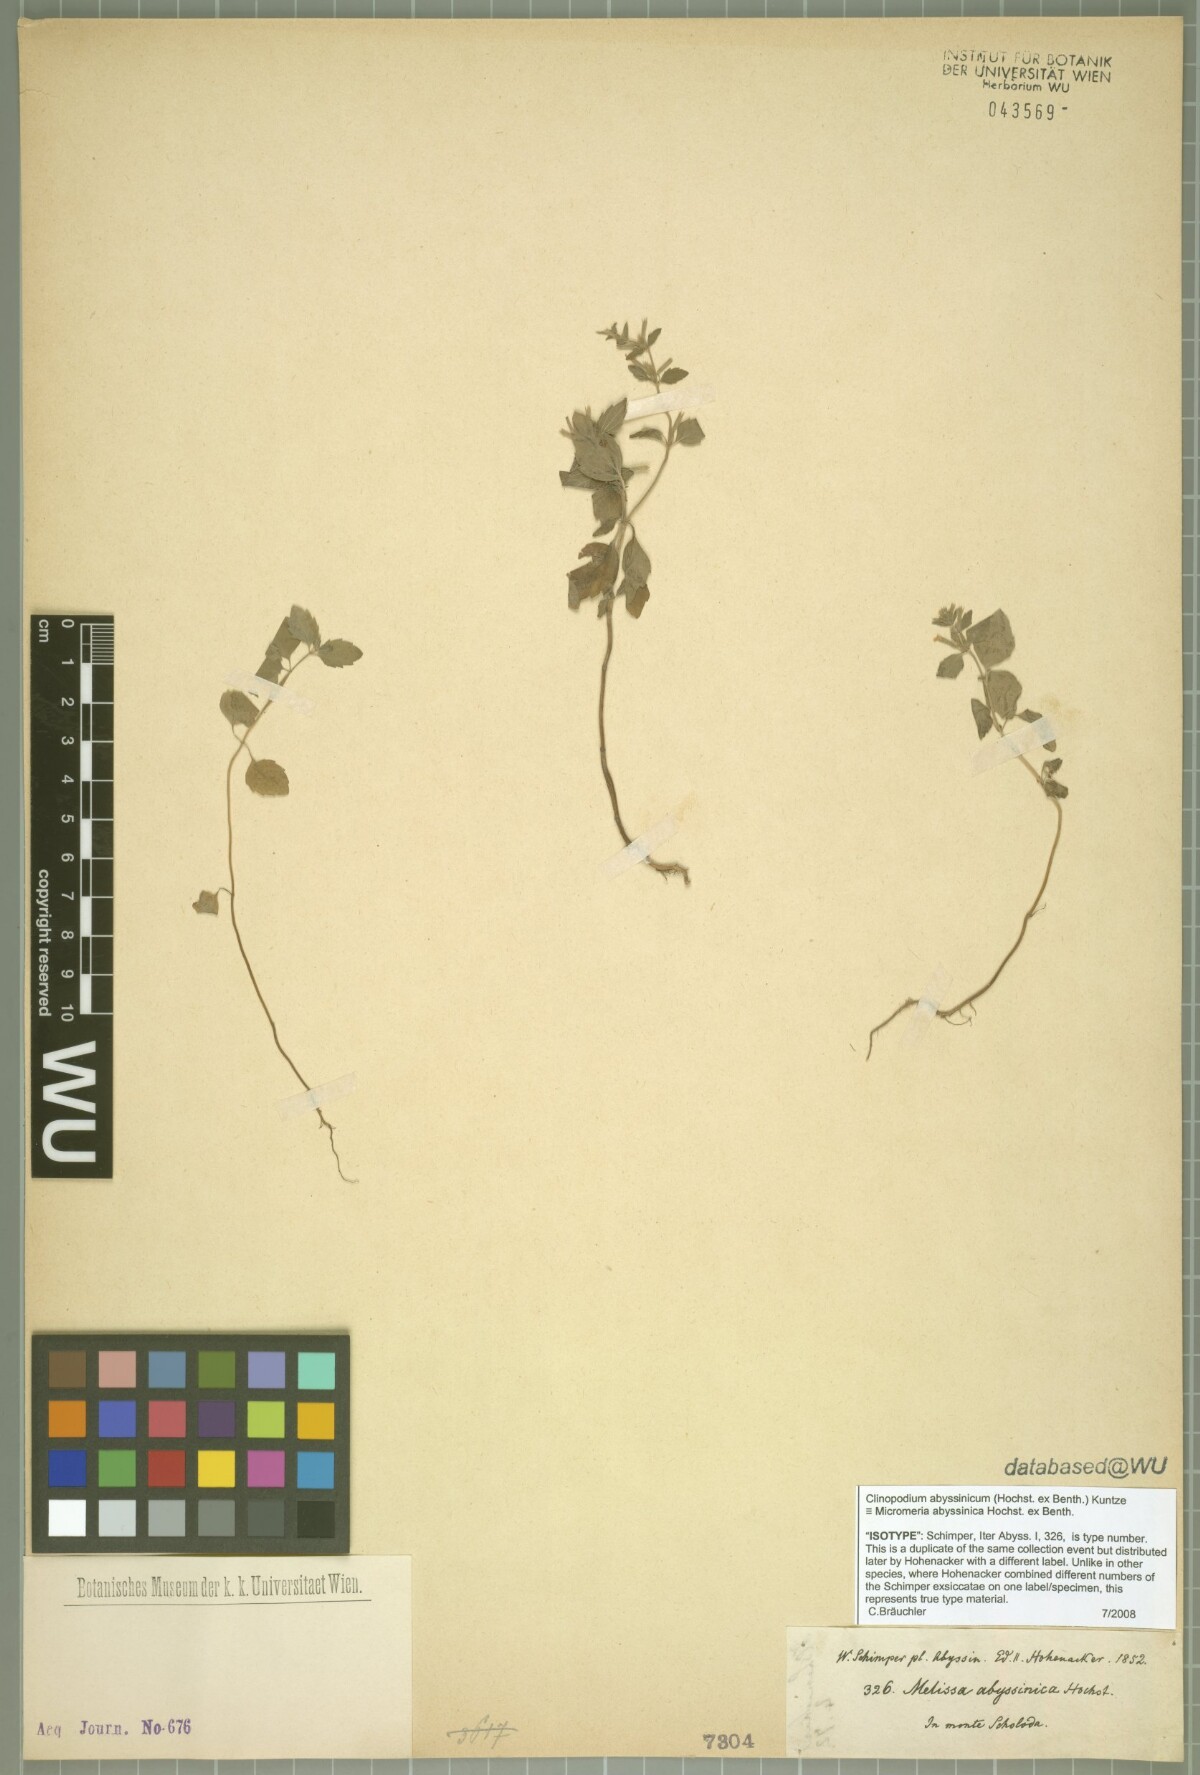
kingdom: Plantae
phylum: Tracheophyta
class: Magnoliopsida
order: Lamiales
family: Lamiaceae
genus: Clinopodium
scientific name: Clinopodium abyssinicum
